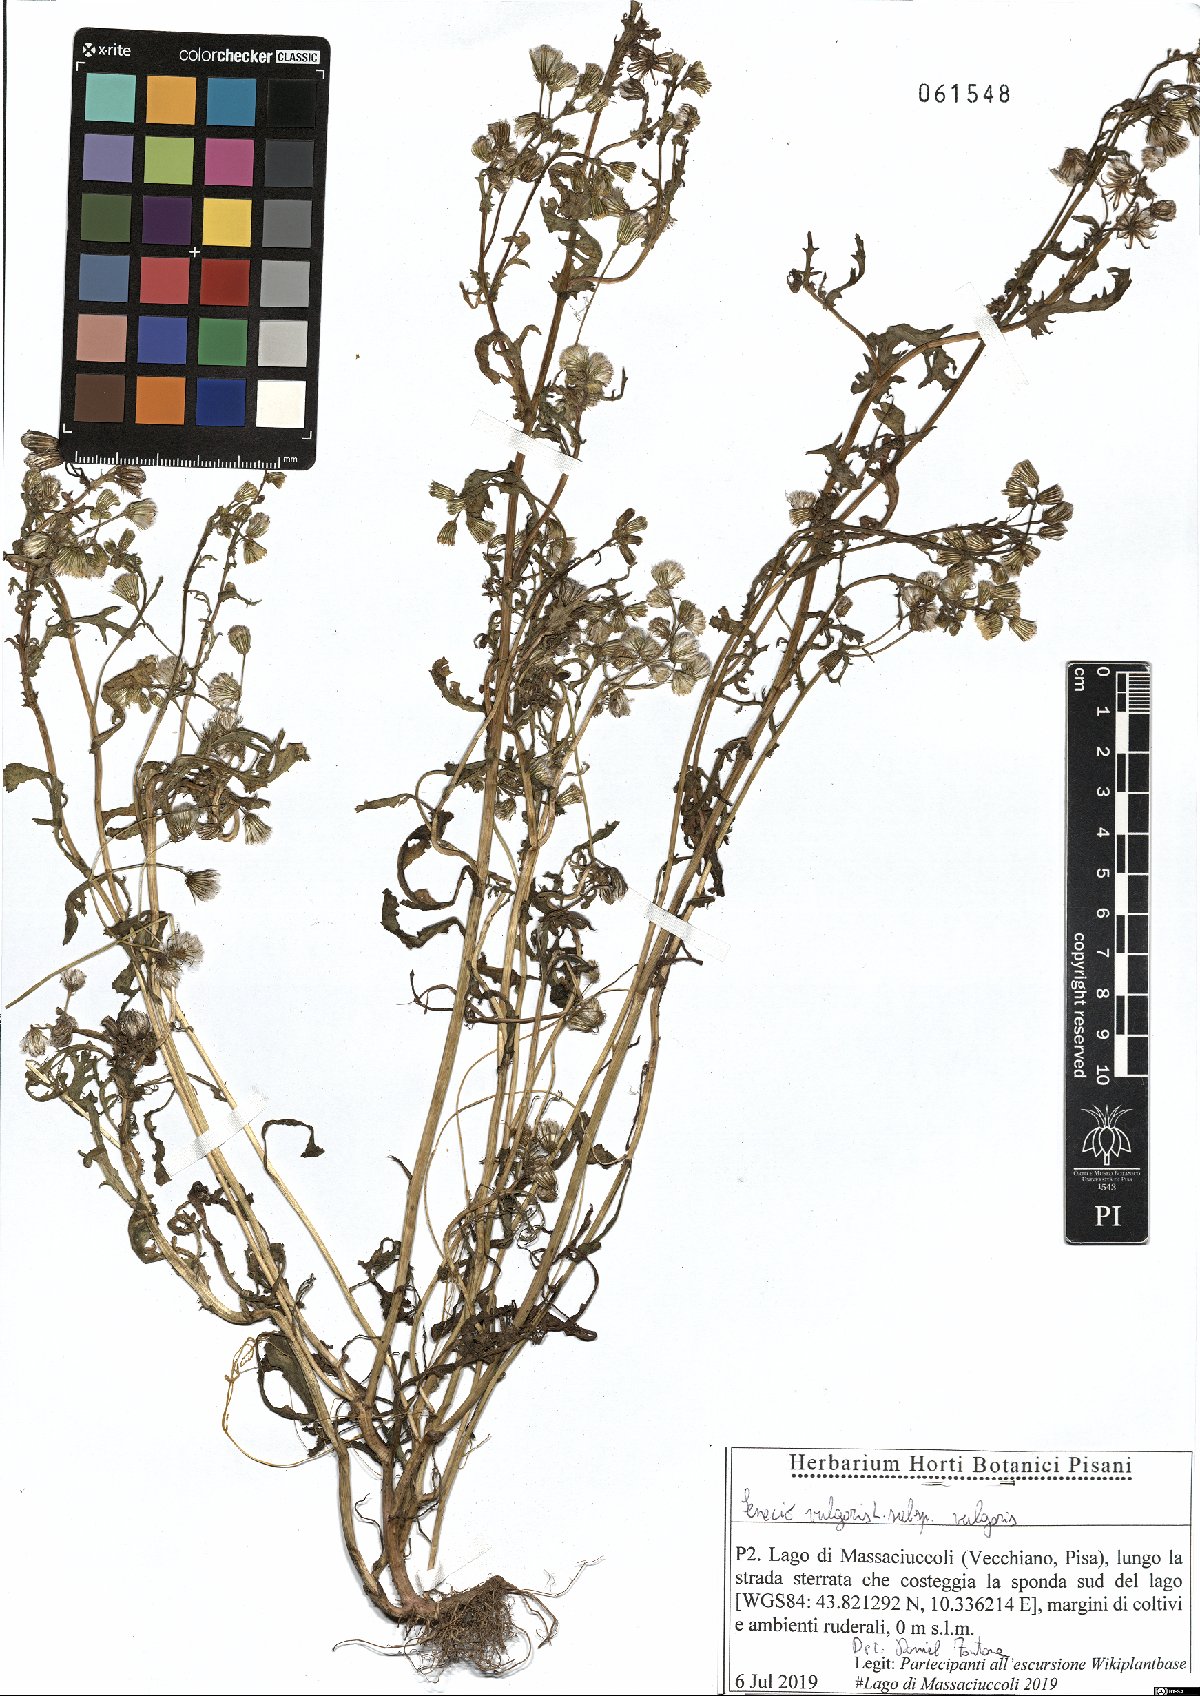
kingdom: Plantae
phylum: Tracheophyta
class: Magnoliopsida
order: Asterales
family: Asteraceae
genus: Senecio
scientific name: Senecio vulgaris
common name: Old-man-in-the-spring
